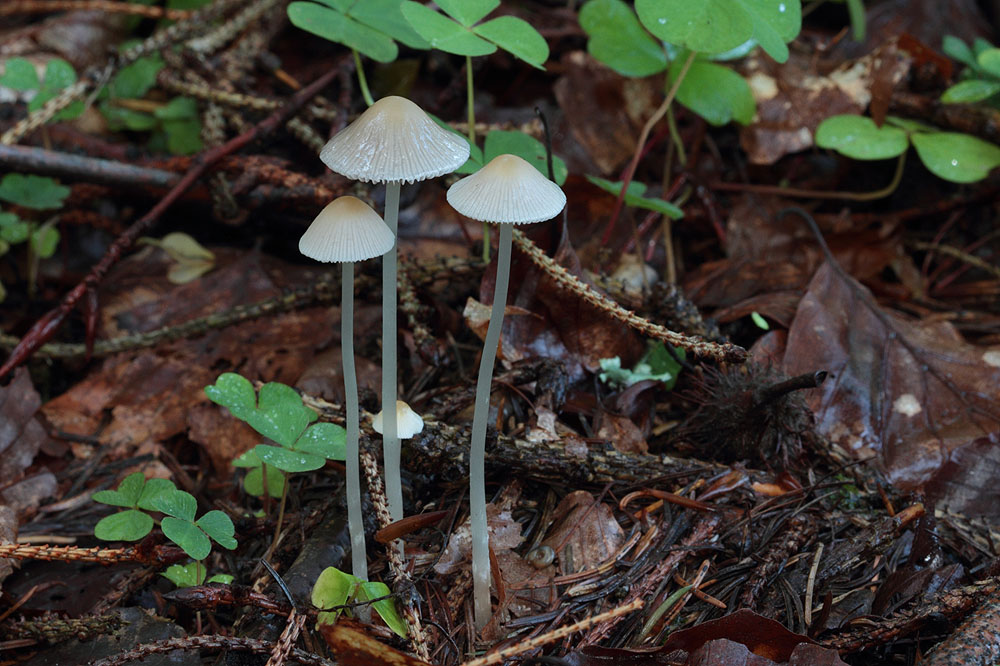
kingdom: Fungi
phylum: Basidiomycota
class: Agaricomycetes
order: Agaricales
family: Psathyrellaceae
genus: Psathyrella
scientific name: Psathyrella pseudogracilis
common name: slank mørkhat
